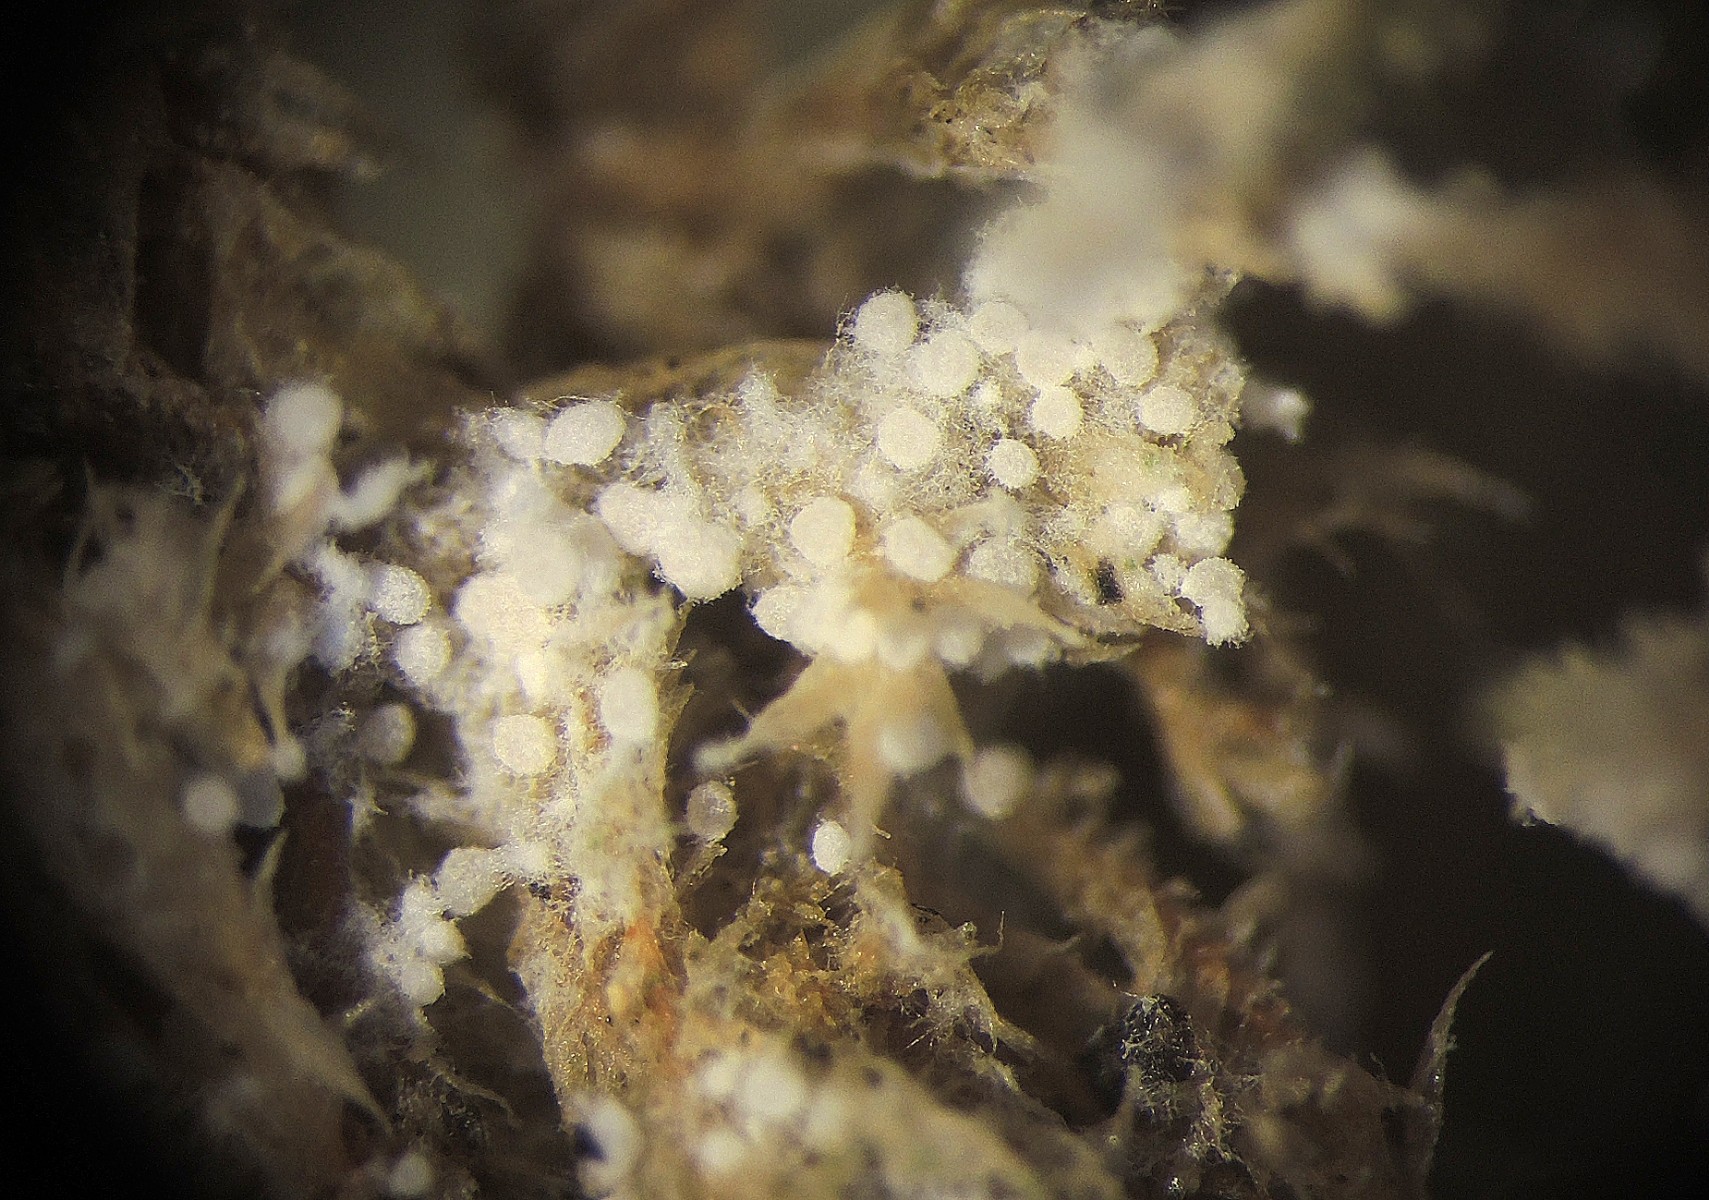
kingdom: Fungi
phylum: Basidiomycota
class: Agaricomycetes
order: Trechisporales
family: Sistotremataceae
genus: Trechispora
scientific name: Trechispora
